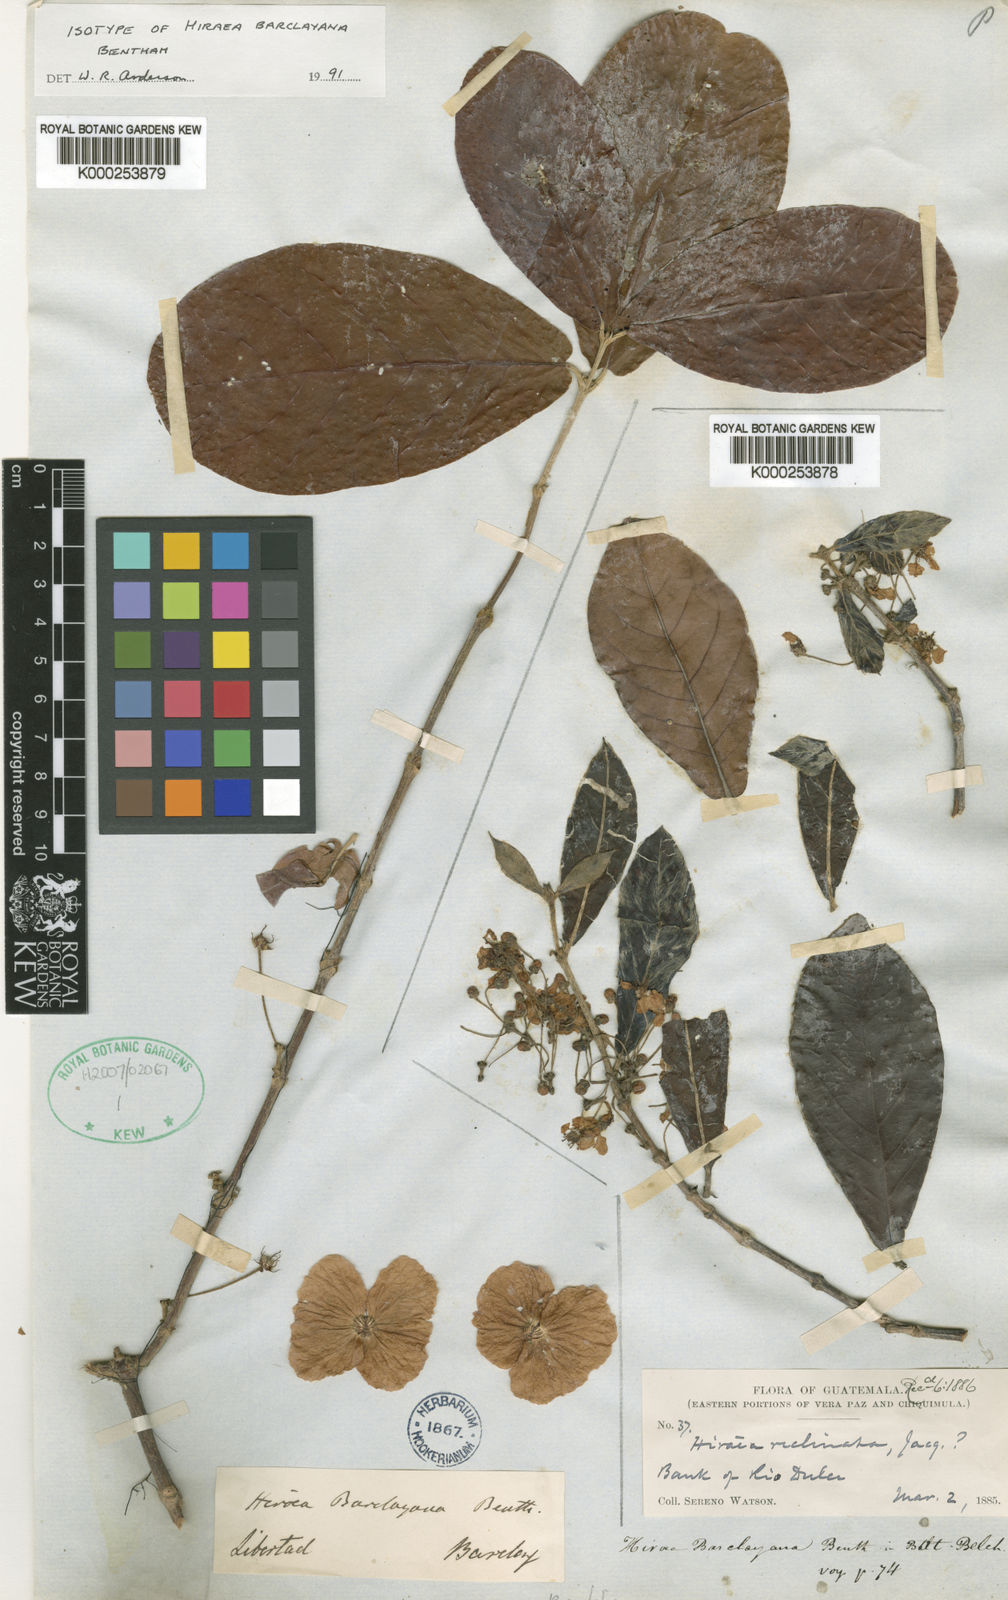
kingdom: Plantae
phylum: Tracheophyta
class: Magnoliopsida
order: Malpighiales
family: Malpighiaceae
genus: Hiraea
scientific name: Hiraea ternifolia
